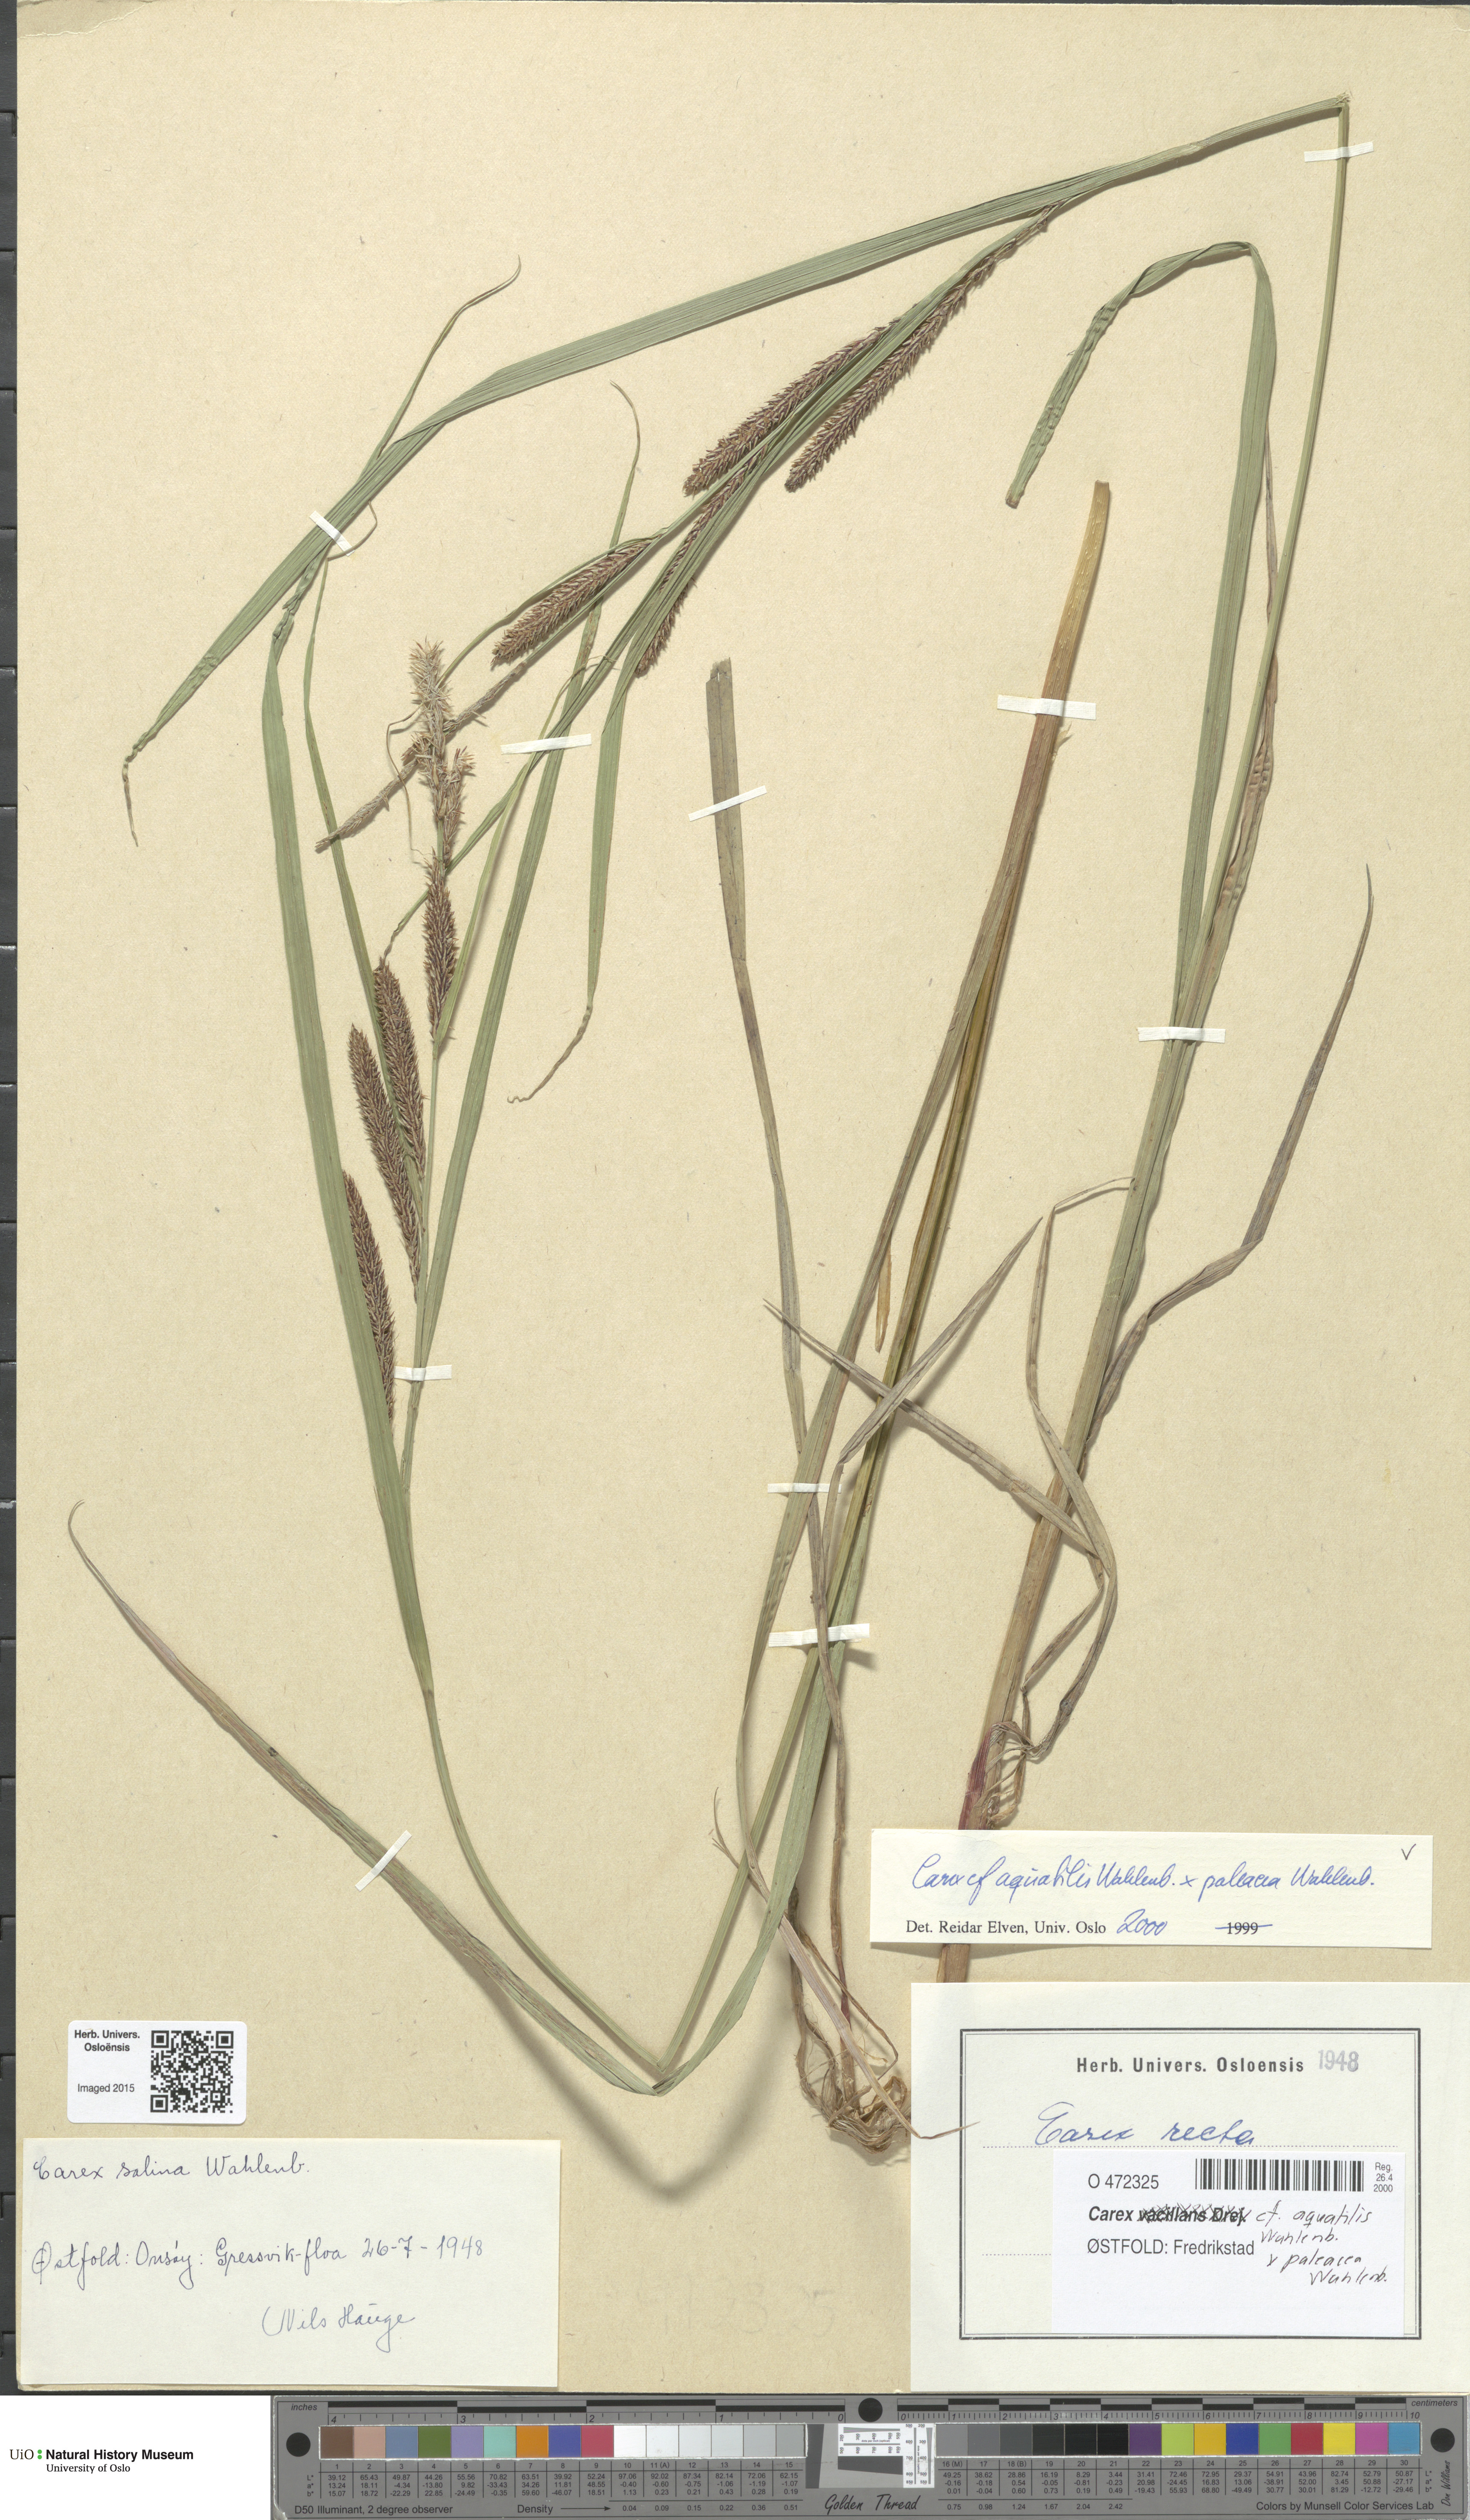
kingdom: Plantae
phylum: Tracheophyta
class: Liliopsida
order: Poales
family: Cyperaceae
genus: Carex
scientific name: Carex
